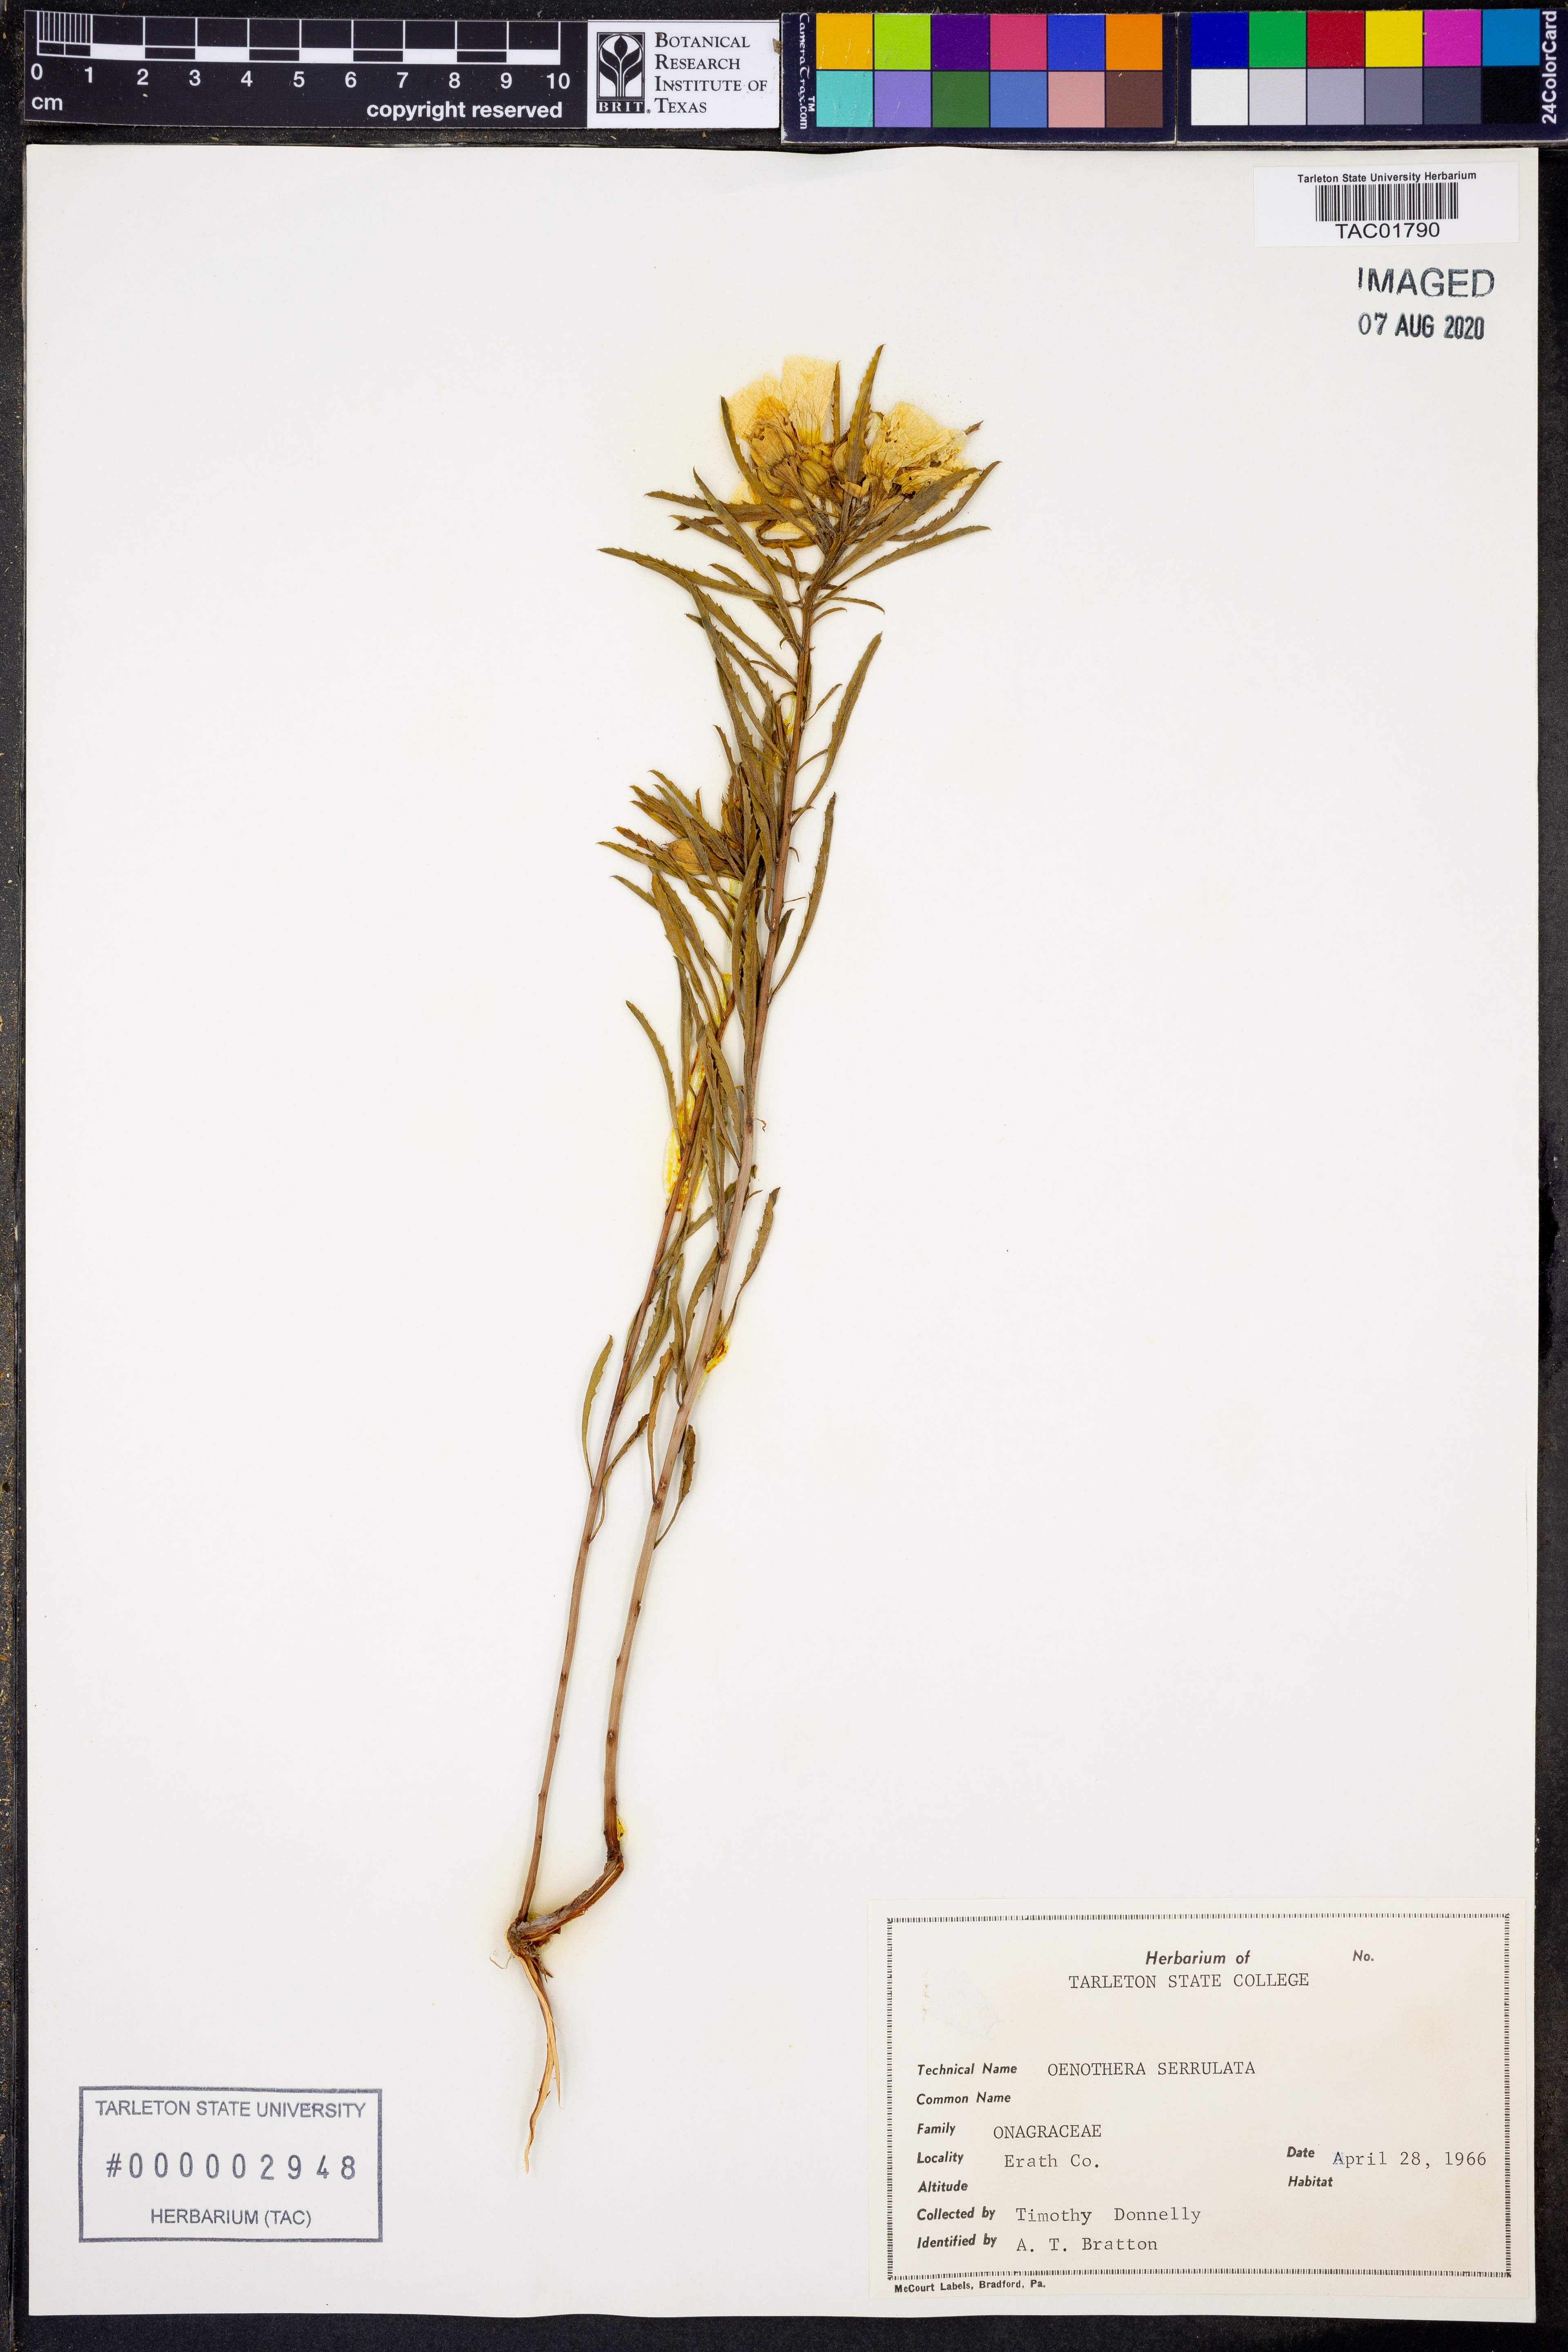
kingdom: Plantae
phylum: Tracheophyta
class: Magnoliopsida
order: Myrtales
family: Onagraceae
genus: Oenothera
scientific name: Oenothera serrulata
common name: Half-shrub calylophus
